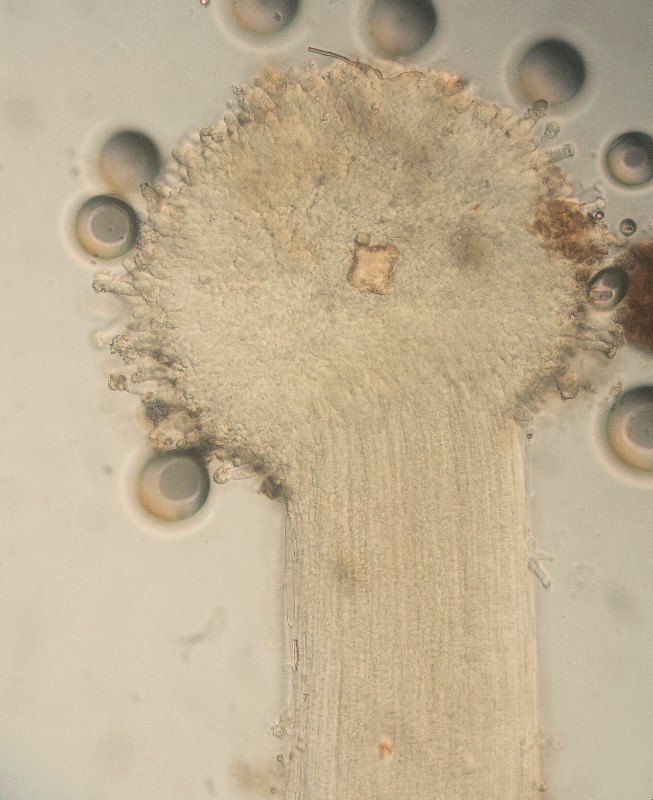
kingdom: Fungi
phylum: Basidiomycota
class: Agaricomycetes
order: Agaricales
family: Physalacriaceae
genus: Physalacria
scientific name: Physalacria
